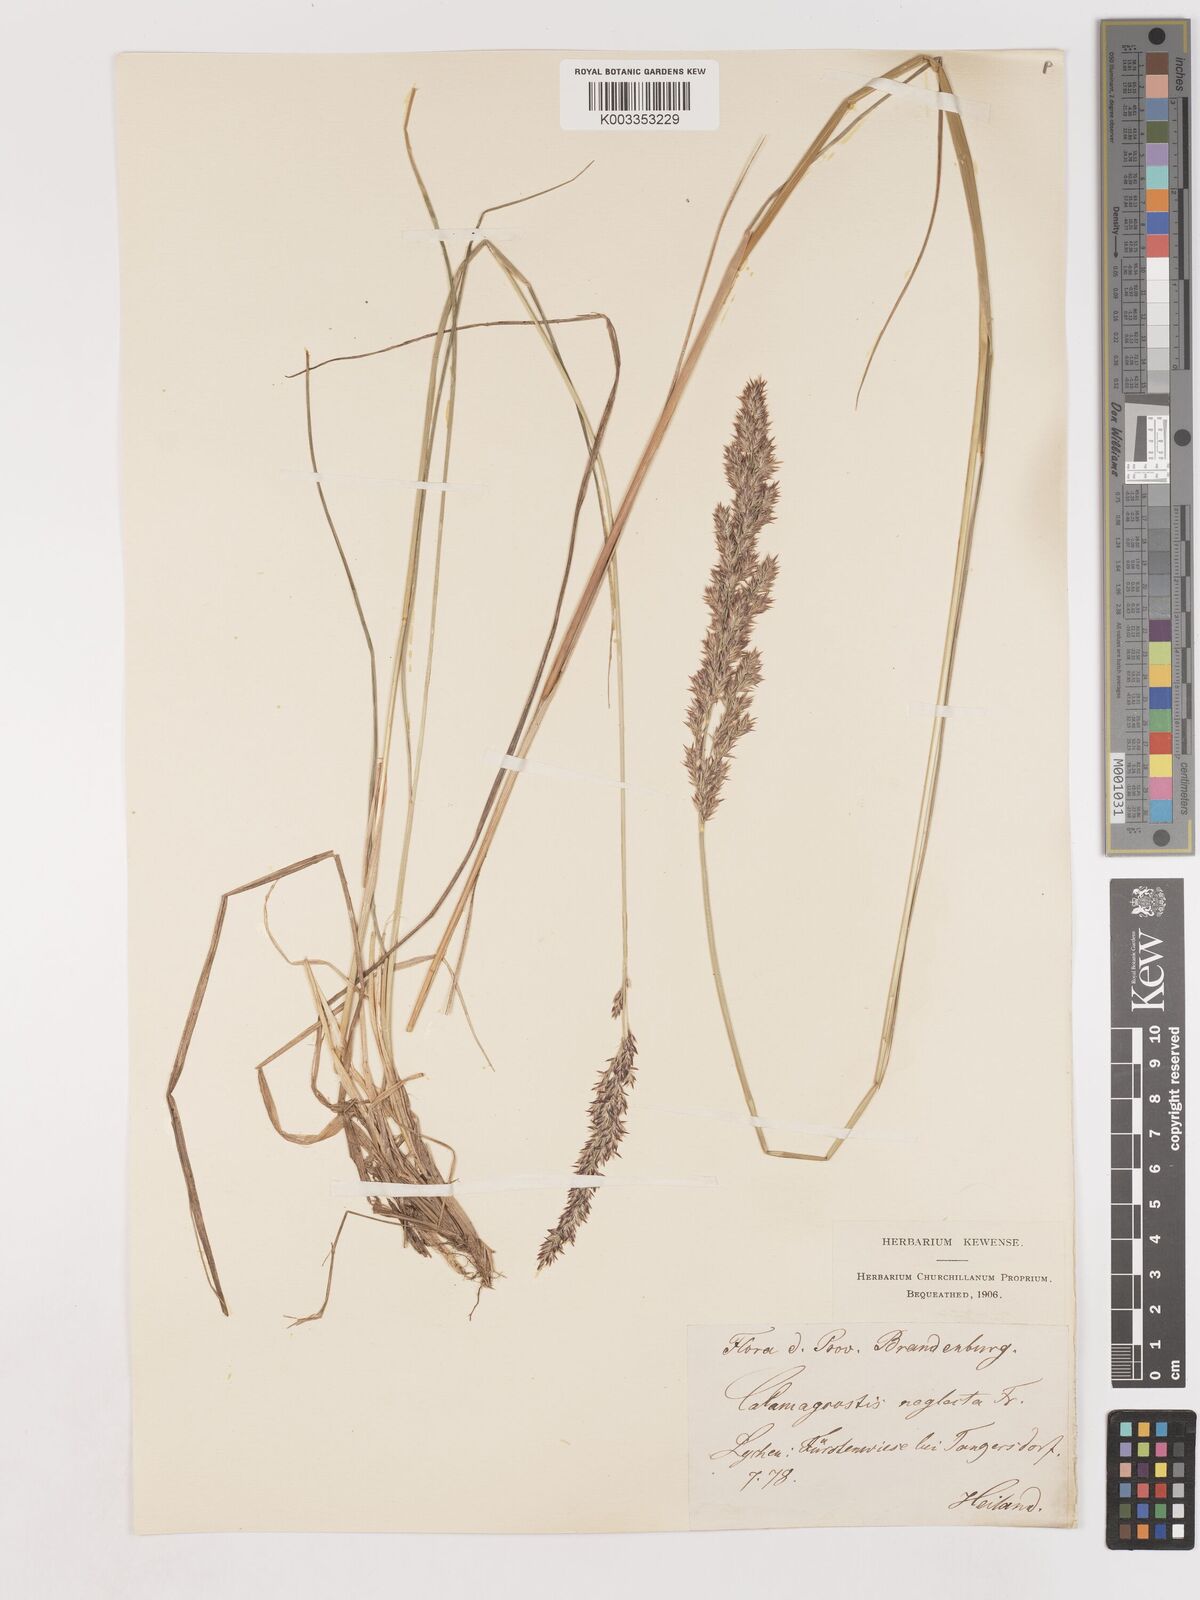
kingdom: Plantae
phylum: Tracheophyta
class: Liliopsida
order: Poales
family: Poaceae
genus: Cinnagrostis
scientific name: Cinnagrostis recta
